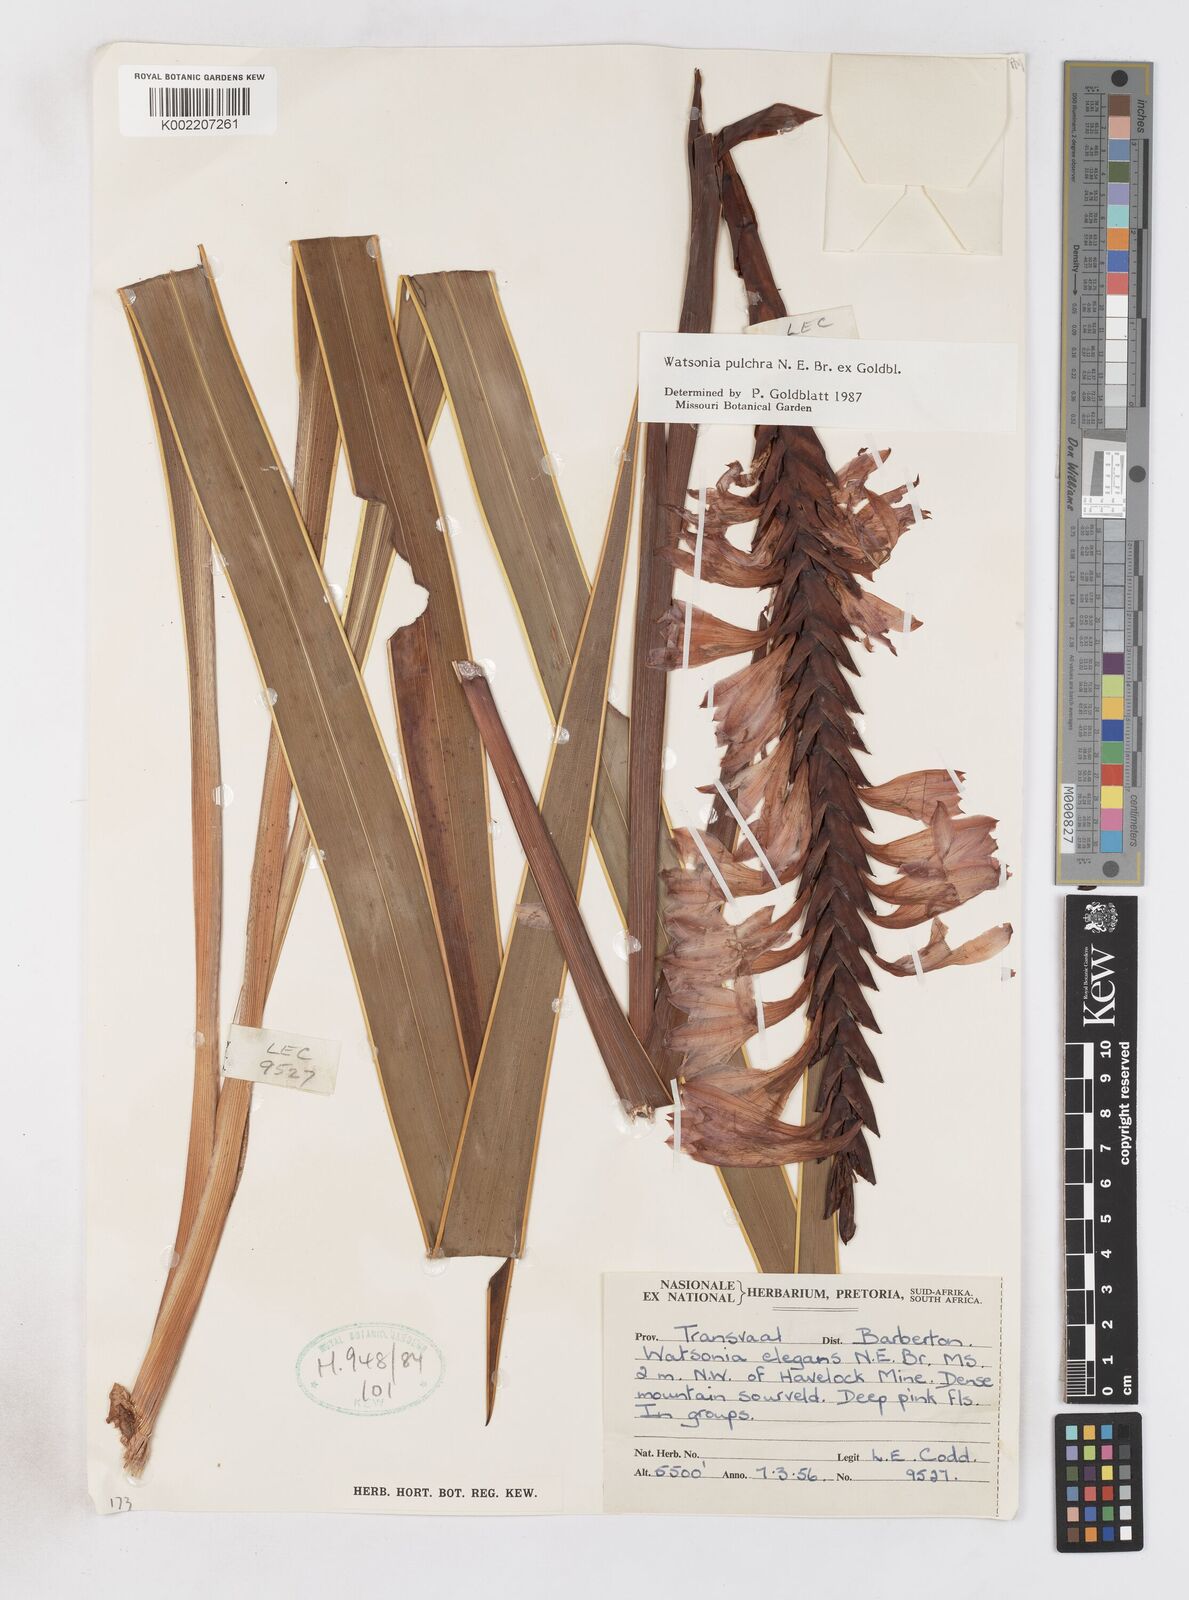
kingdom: Plantae
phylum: Tracheophyta
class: Liliopsida
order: Asparagales
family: Iridaceae
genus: Watsonia
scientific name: Watsonia pulchra
